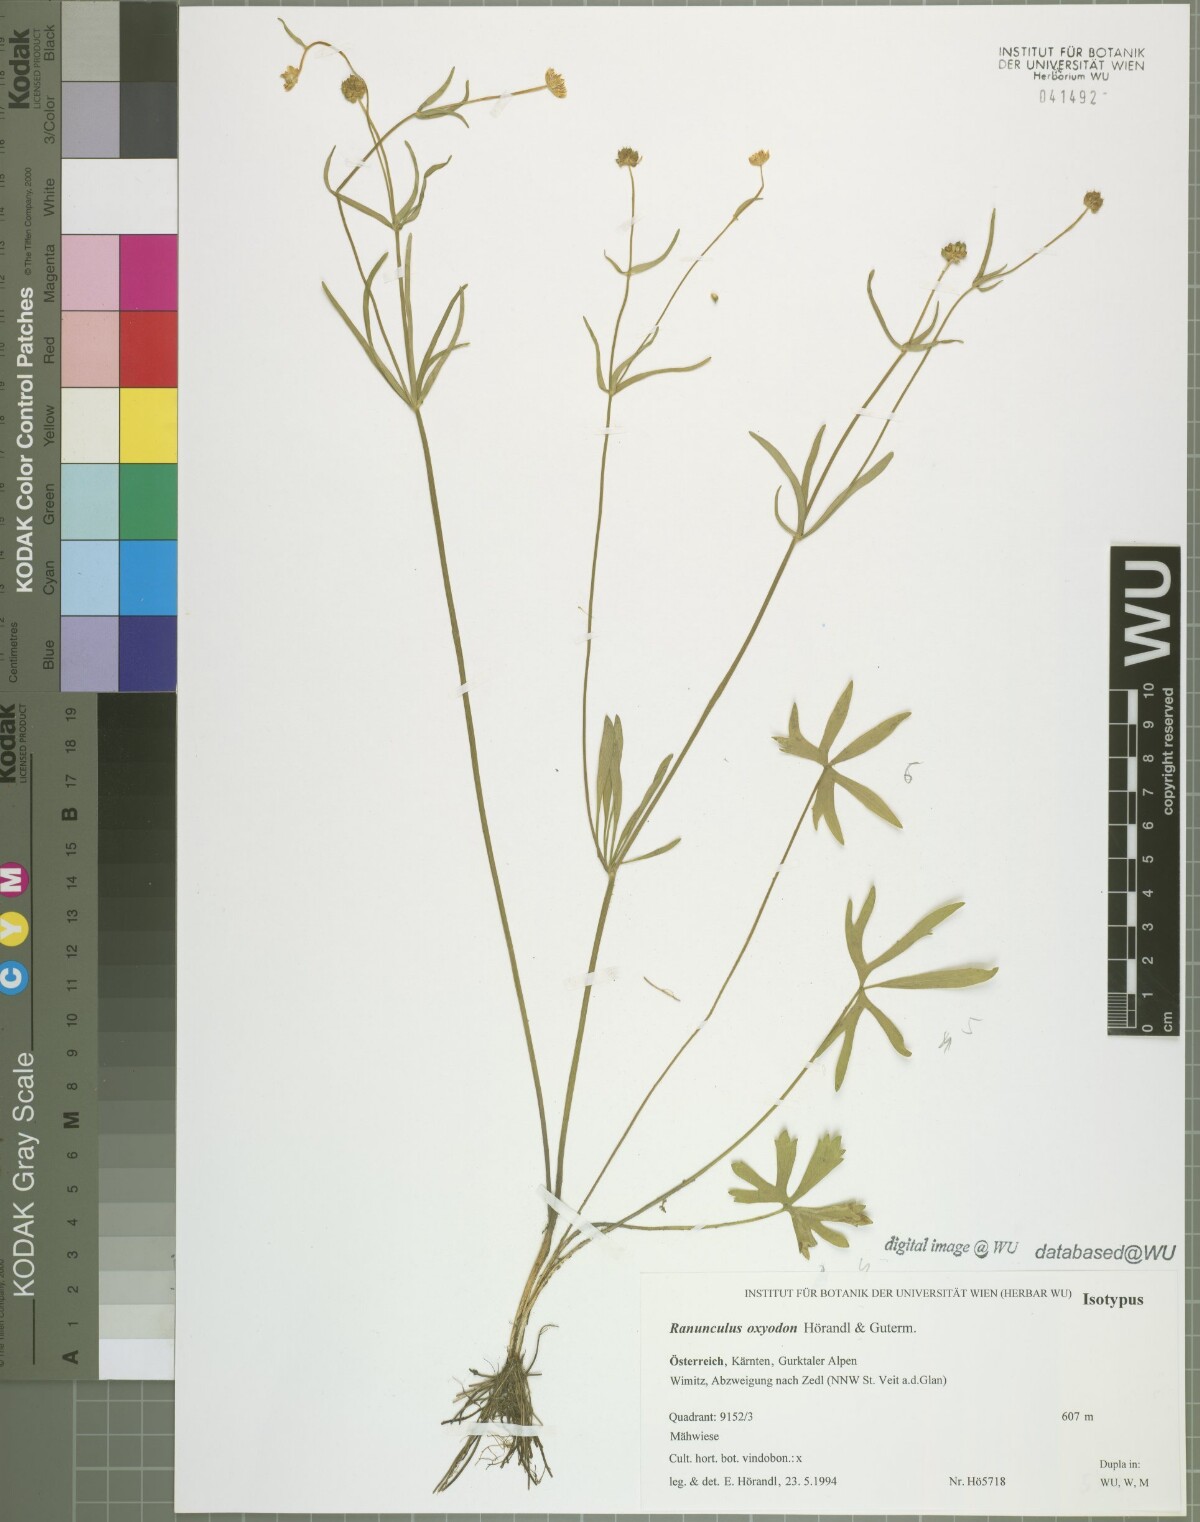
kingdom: Plantae
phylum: Tracheophyta
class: Magnoliopsida
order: Ranunculales
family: Ranunculaceae
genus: Ranunculus
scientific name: Ranunculus oxyodon
